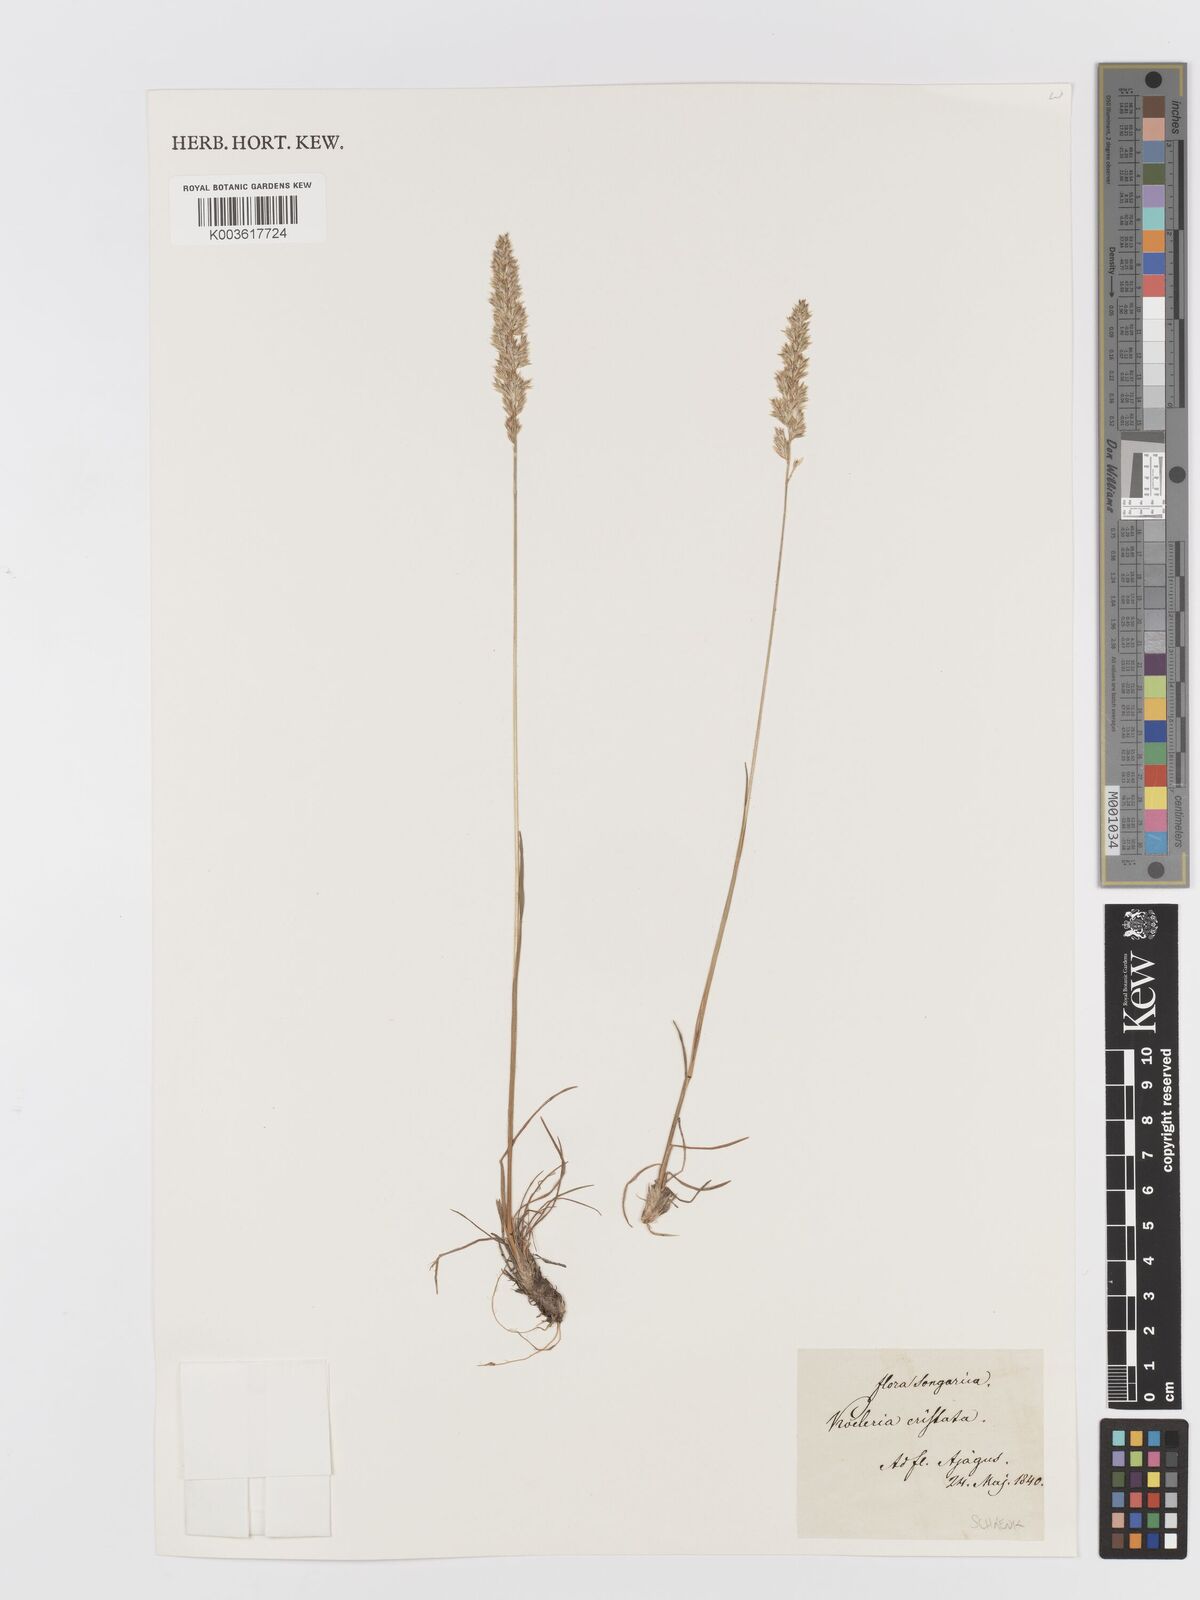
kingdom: Plantae
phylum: Tracheophyta
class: Liliopsida
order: Poales
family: Poaceae
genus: Koeleria
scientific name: Koeleria splendens
